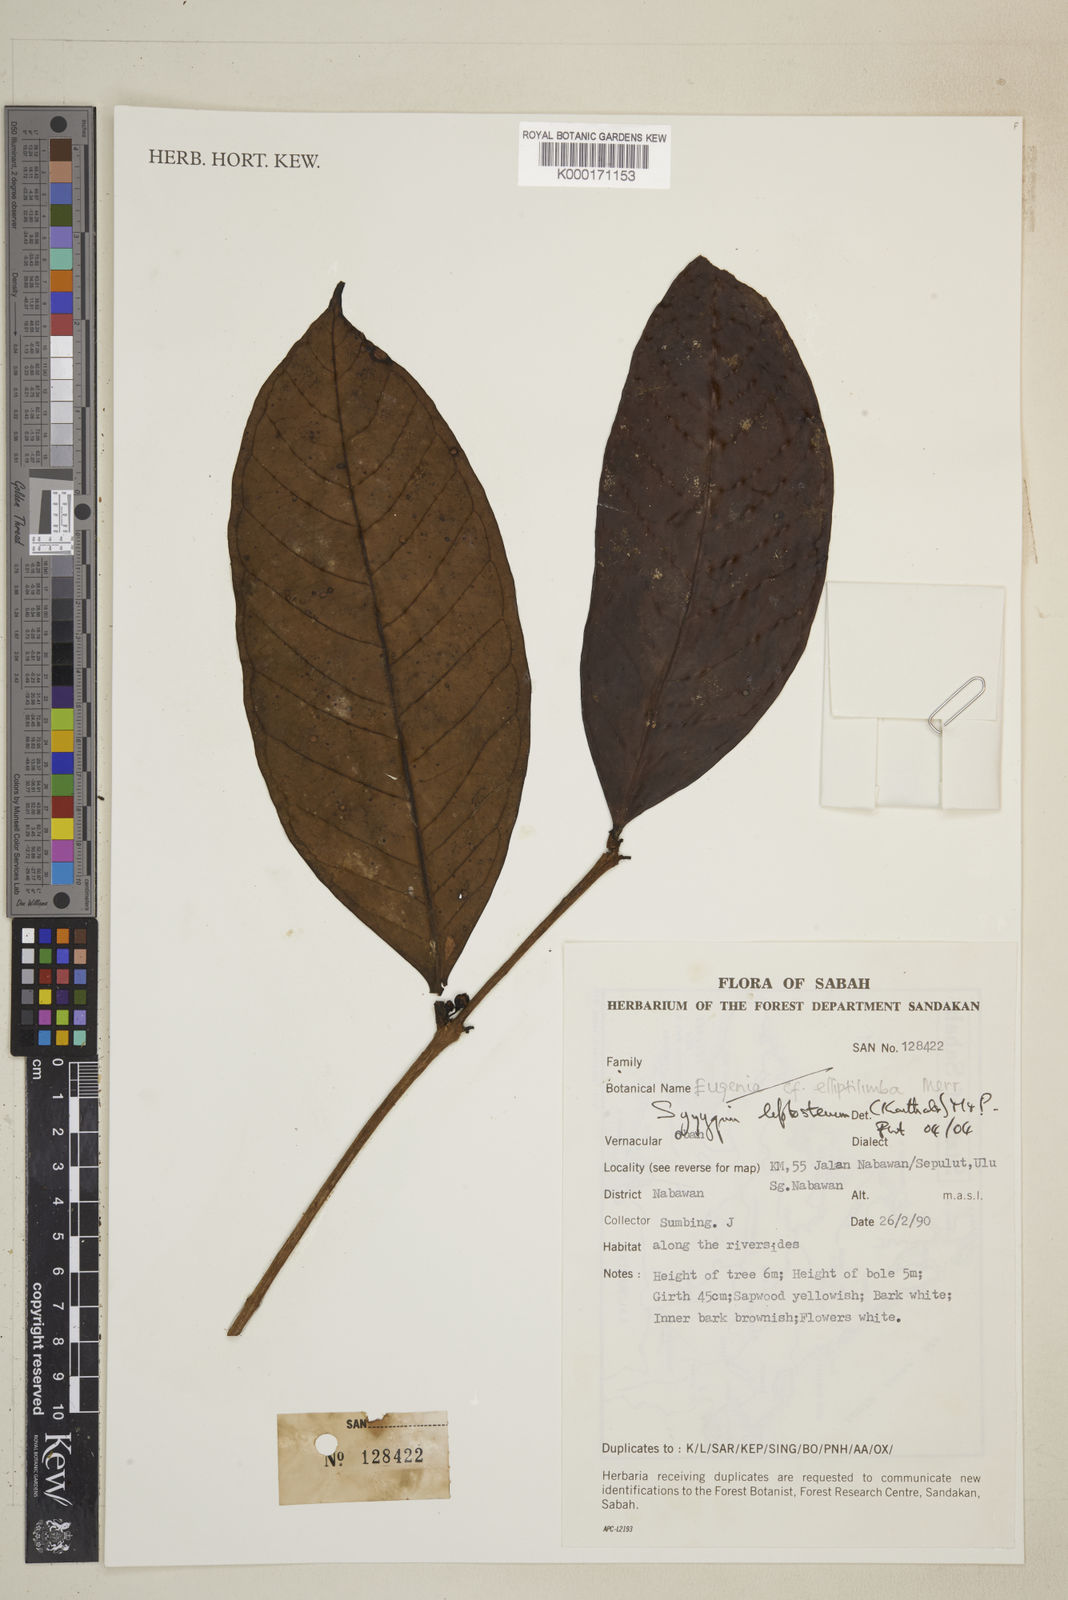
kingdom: Plantae
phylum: Tracheophyta
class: Magnoliopsida
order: Myrtales
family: Myrtaceae
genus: Syzygium
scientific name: Syzygium
